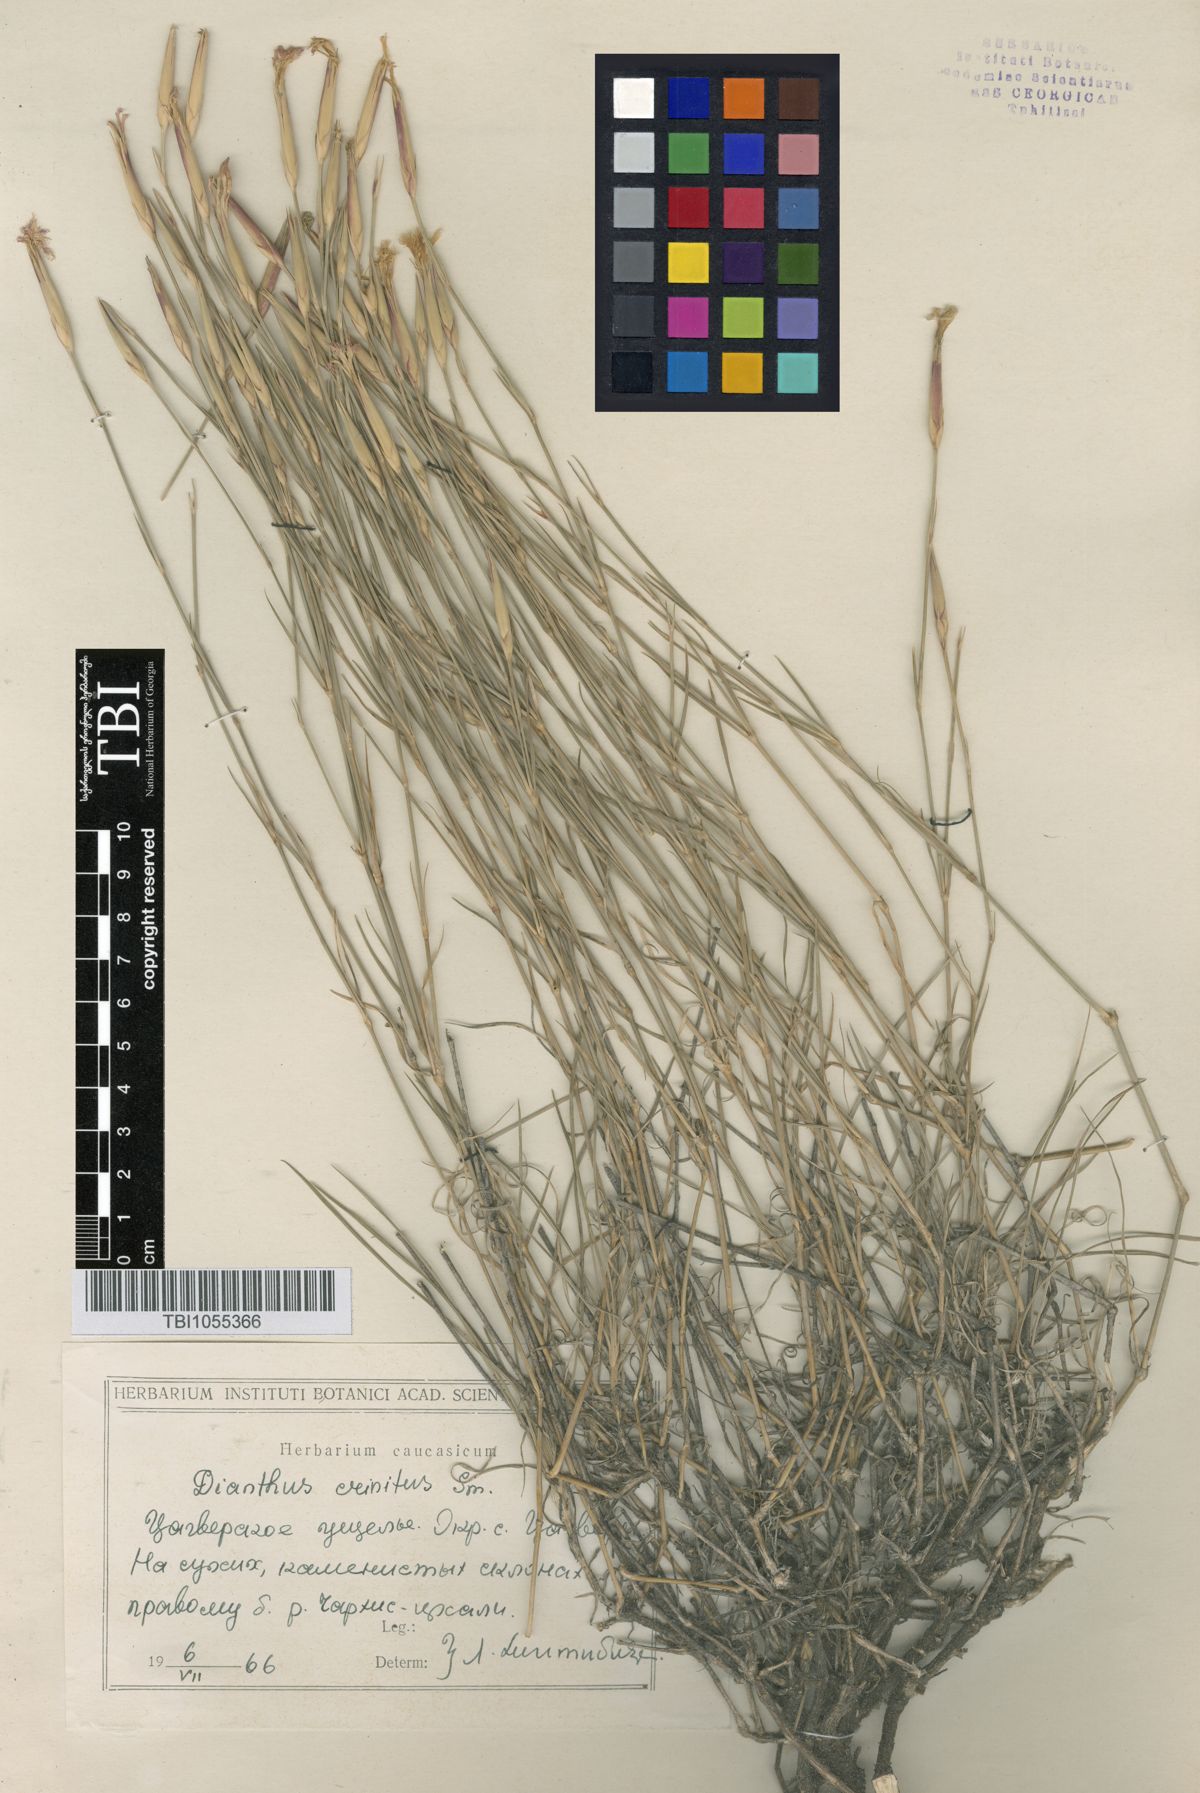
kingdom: Plantae
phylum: Tracheophyta
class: Magnoliopsida
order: Caryophyllales
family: Caryophyllaceae
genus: Dianthus
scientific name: Dianthus crinitus
